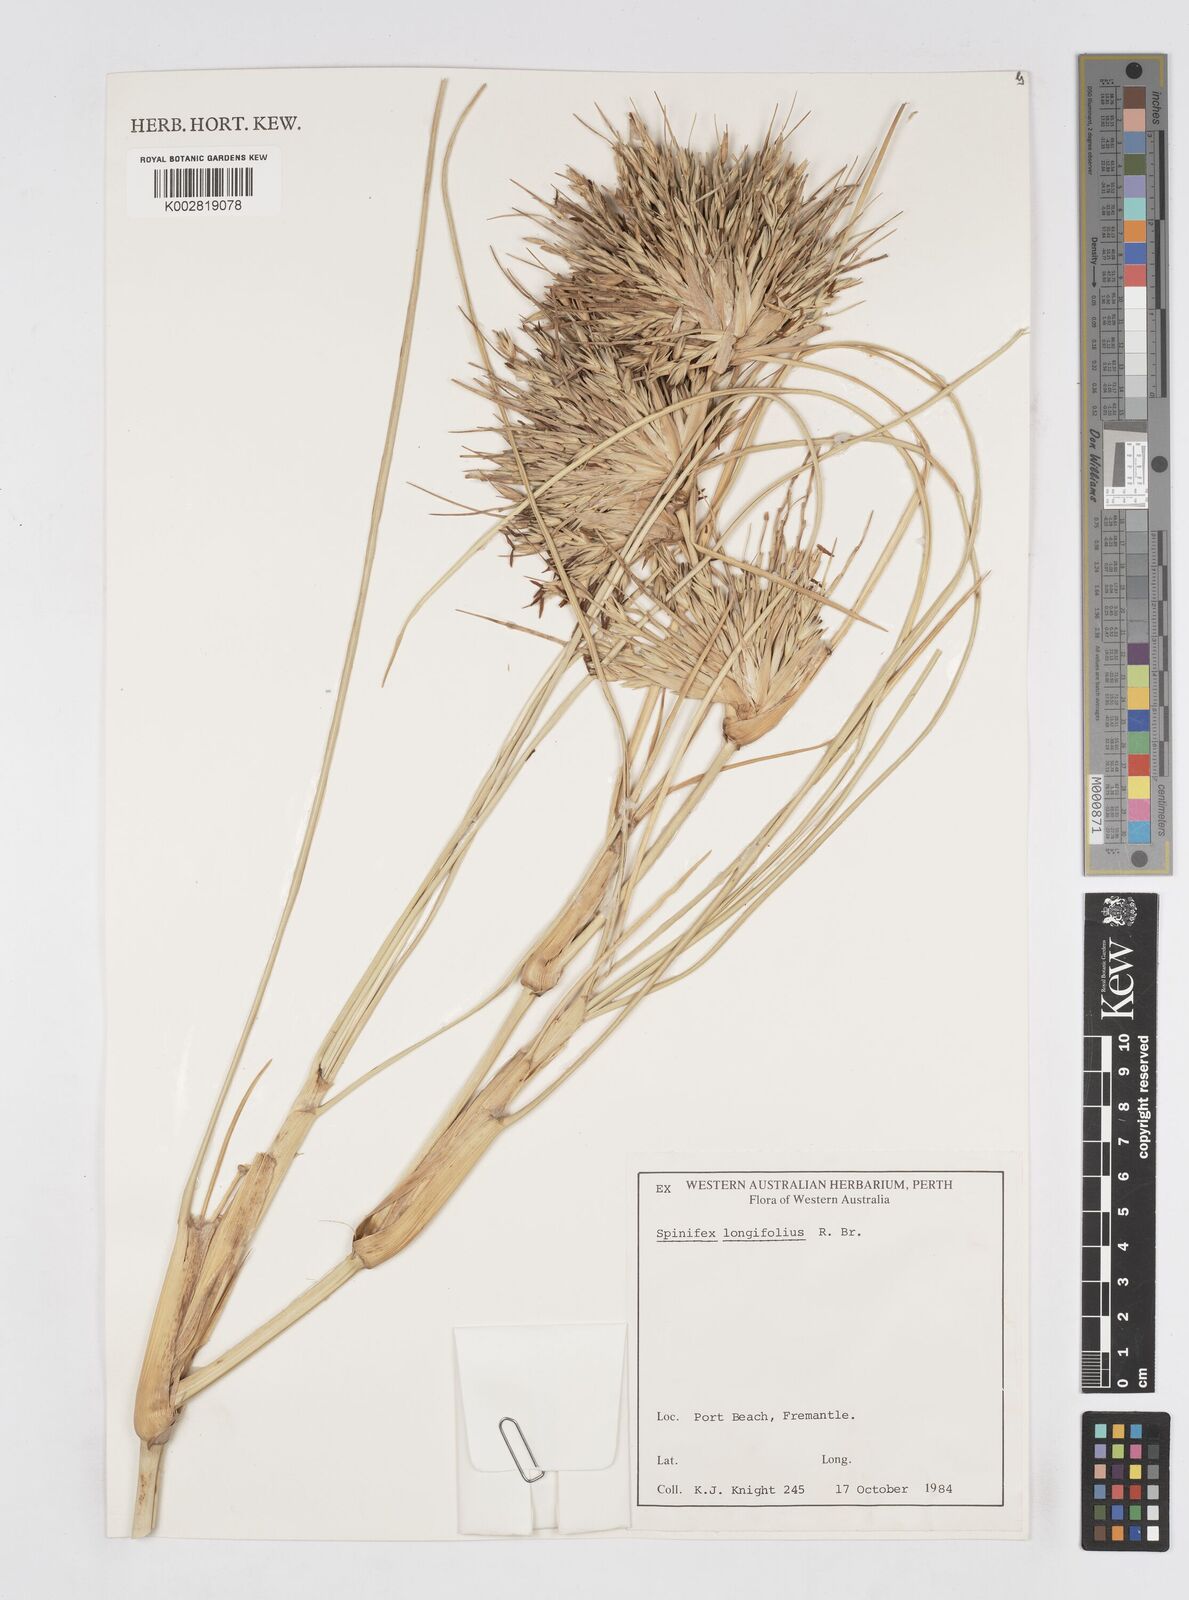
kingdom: Plantae
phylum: Tracheophyta
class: Liliopsida
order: Poales
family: Poaceae
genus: Spinifex
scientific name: Spinifex longifolius
